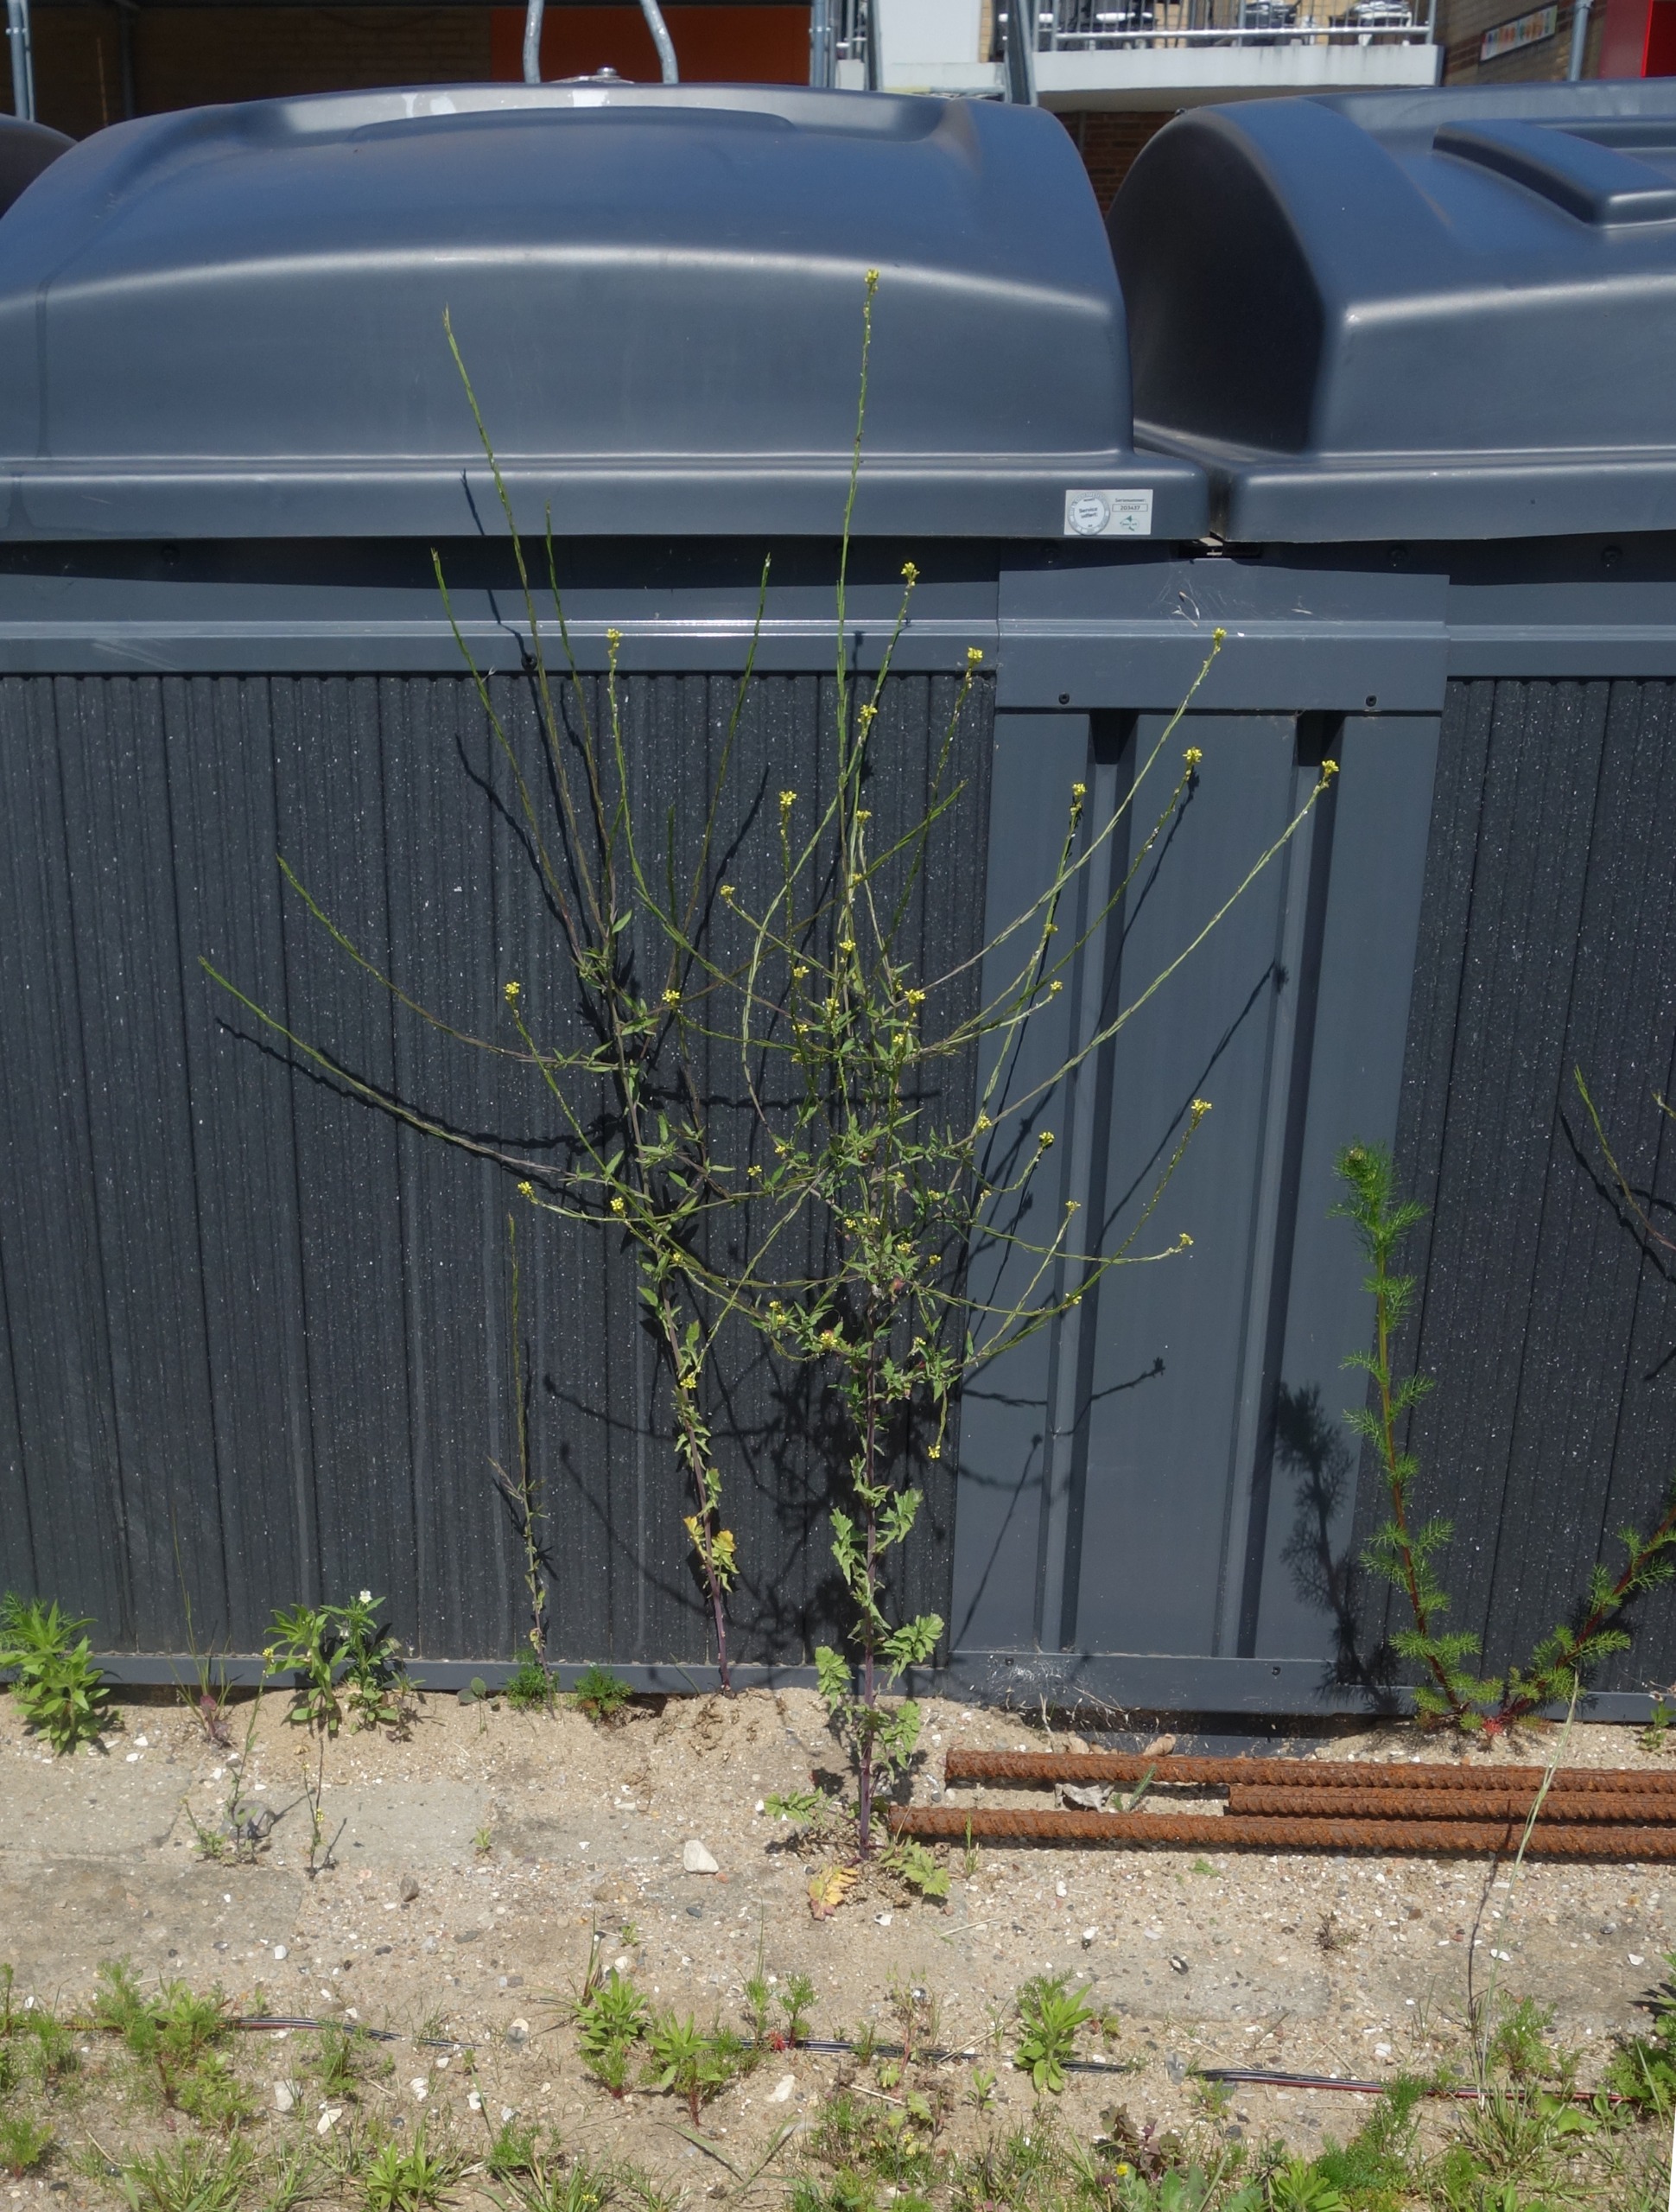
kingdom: Plantae
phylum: Tracheophyta
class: Magnoliopsida
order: Brassicales
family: Brassicaceae
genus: Sisymbrium
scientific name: Sisymbrium officinale
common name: Rank vejsennep
